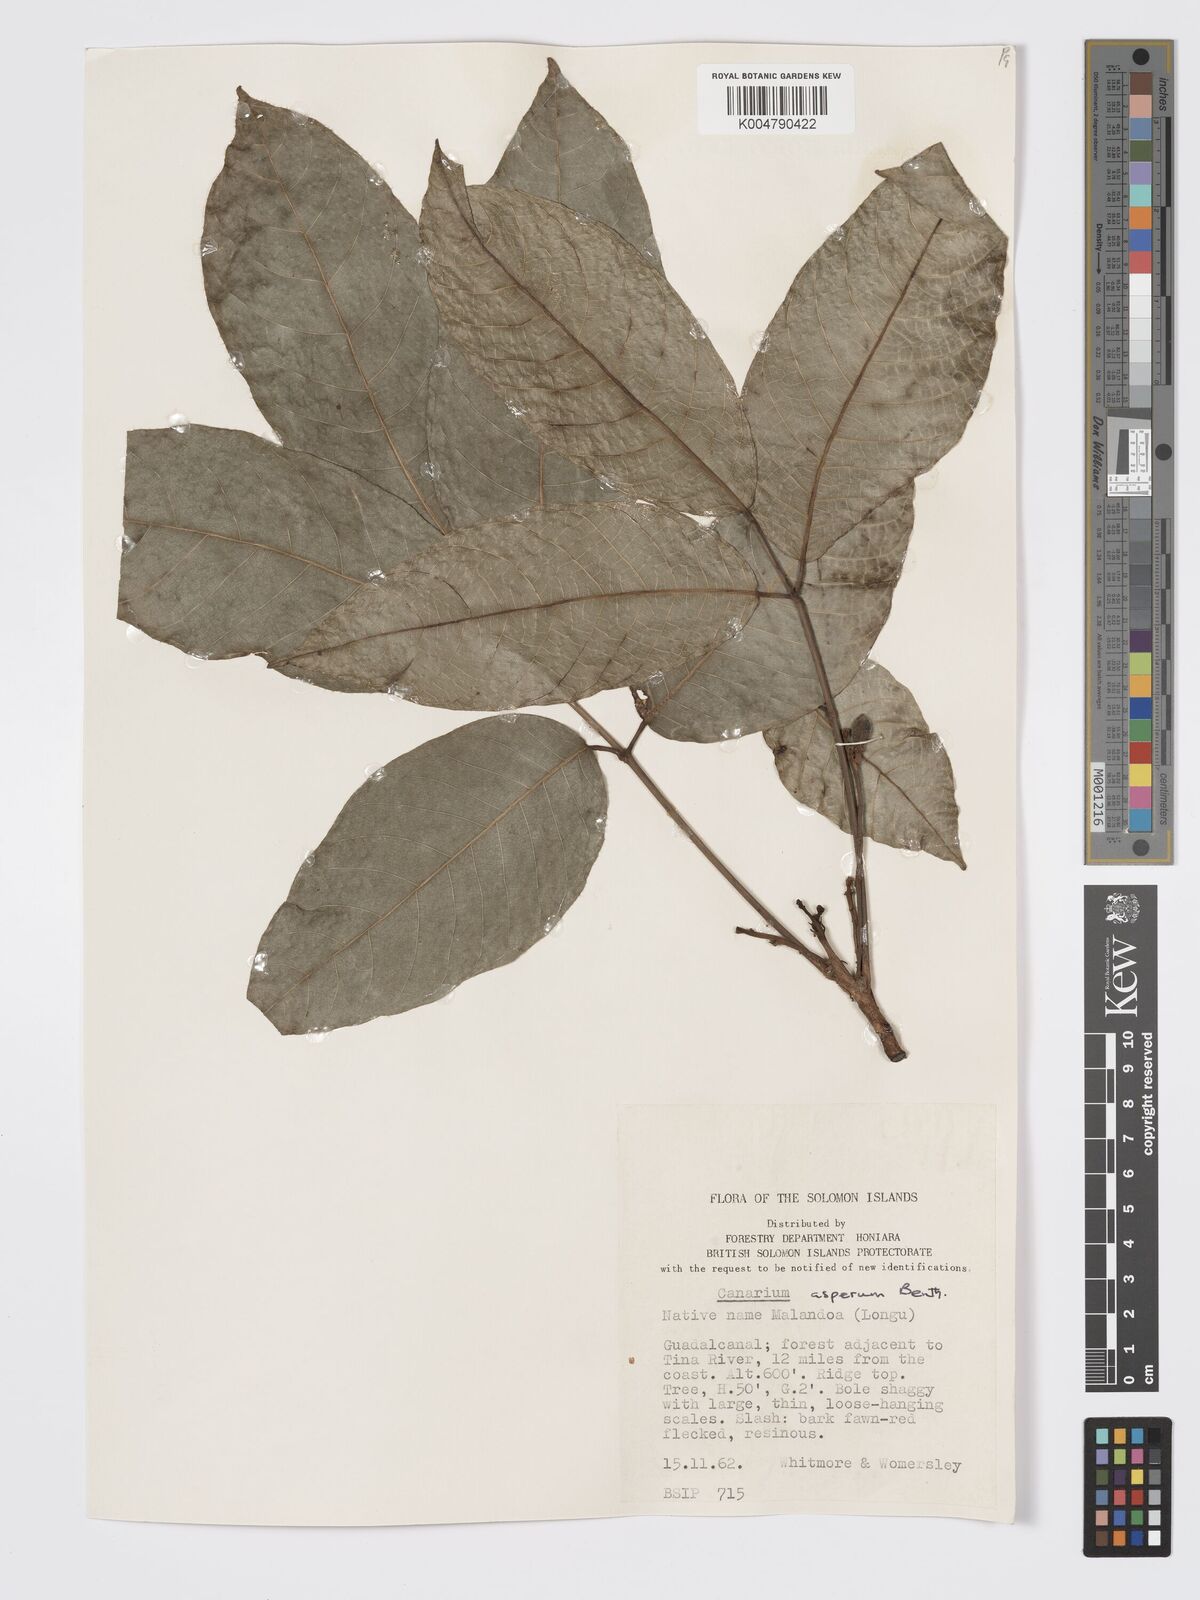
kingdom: Plantae
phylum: Tracheophyta
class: Magnoliopsida
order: Sapindales
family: Burseraceae
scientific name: Burseraceae
